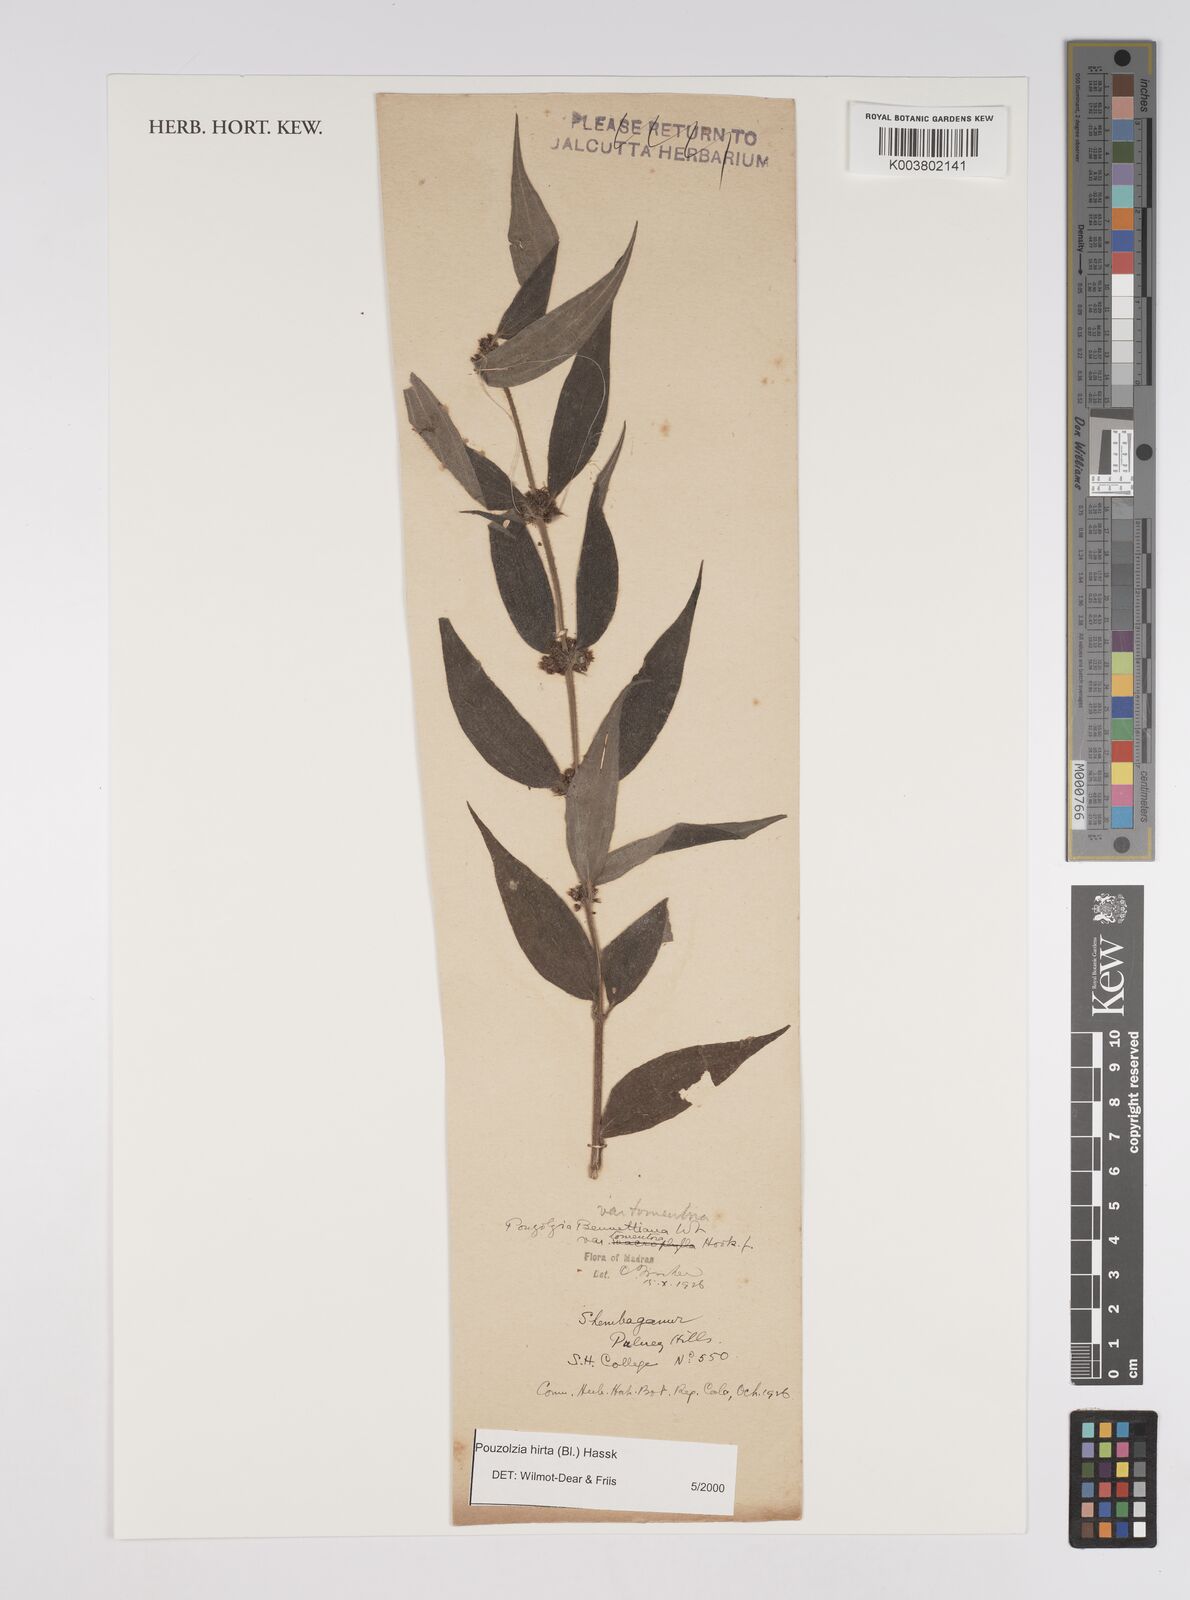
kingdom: Plantae
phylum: Tracheophyta
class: Magnoliopsida
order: Rosales
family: Urticaceae
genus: Gonostegia
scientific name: Gonostegia triandra
